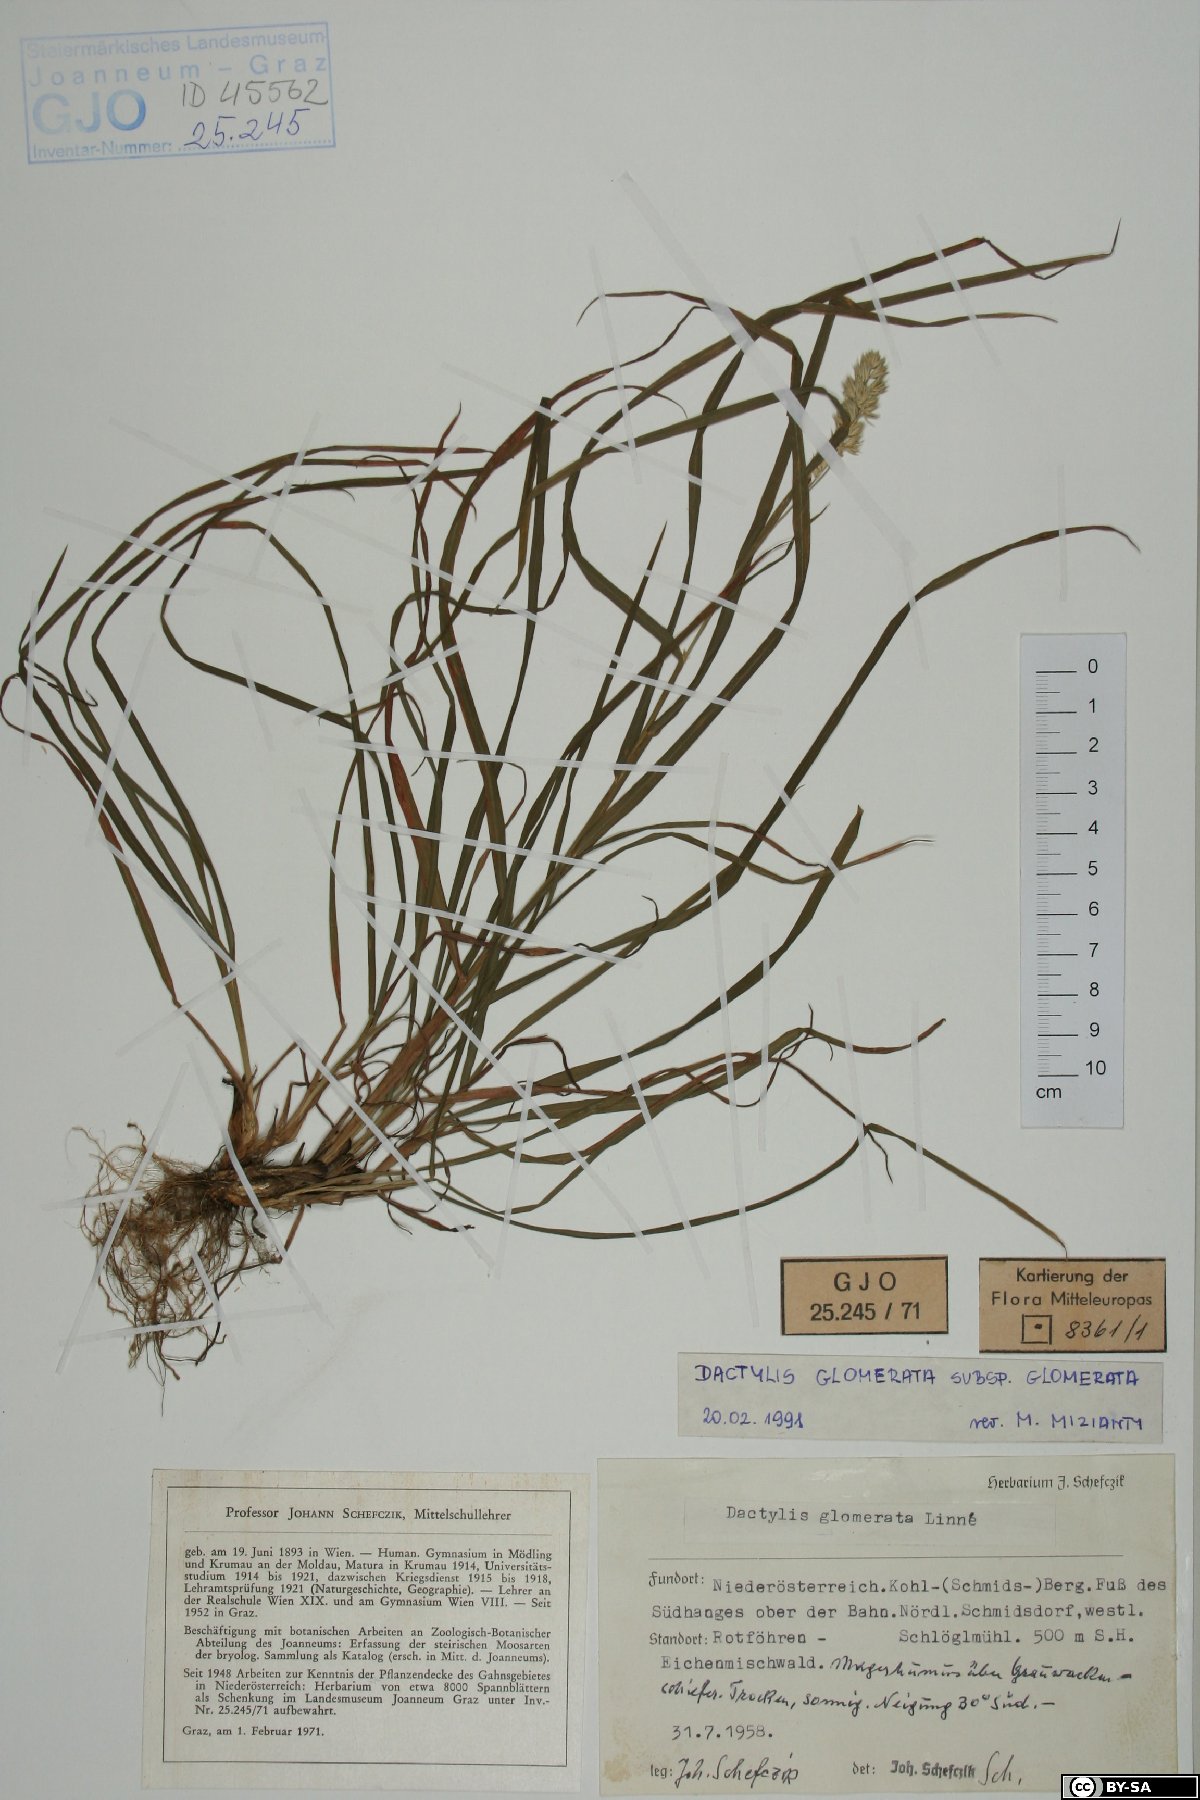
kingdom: Plantae
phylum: Tracheophyta
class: Liliopsida
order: Poales
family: Poaceae
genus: Dactylis
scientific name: Dactylis glomerata
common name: Orchardgrass
